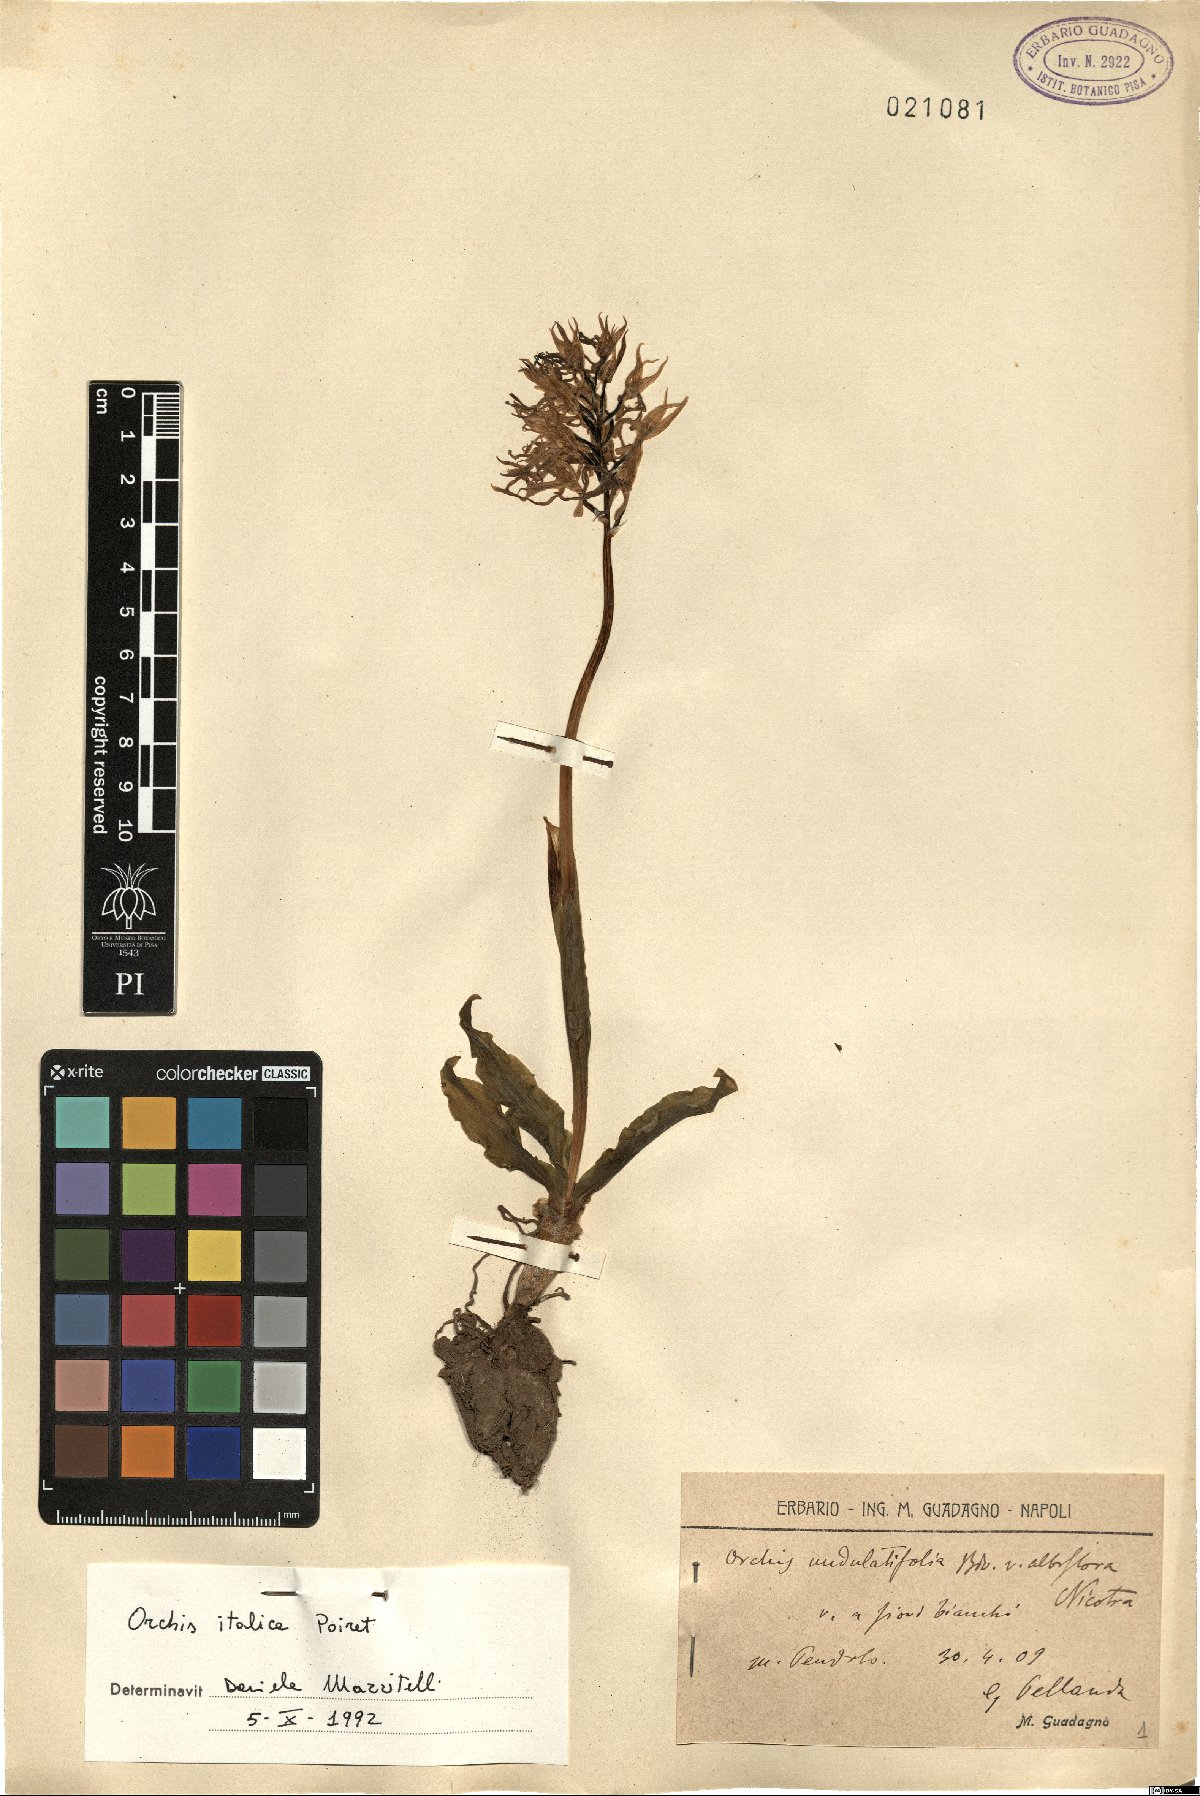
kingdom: Plantae
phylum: Tracheophyta
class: Liliopsida
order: Asparagales
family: Orchidaceae
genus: Orchis
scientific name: Orchis italica
